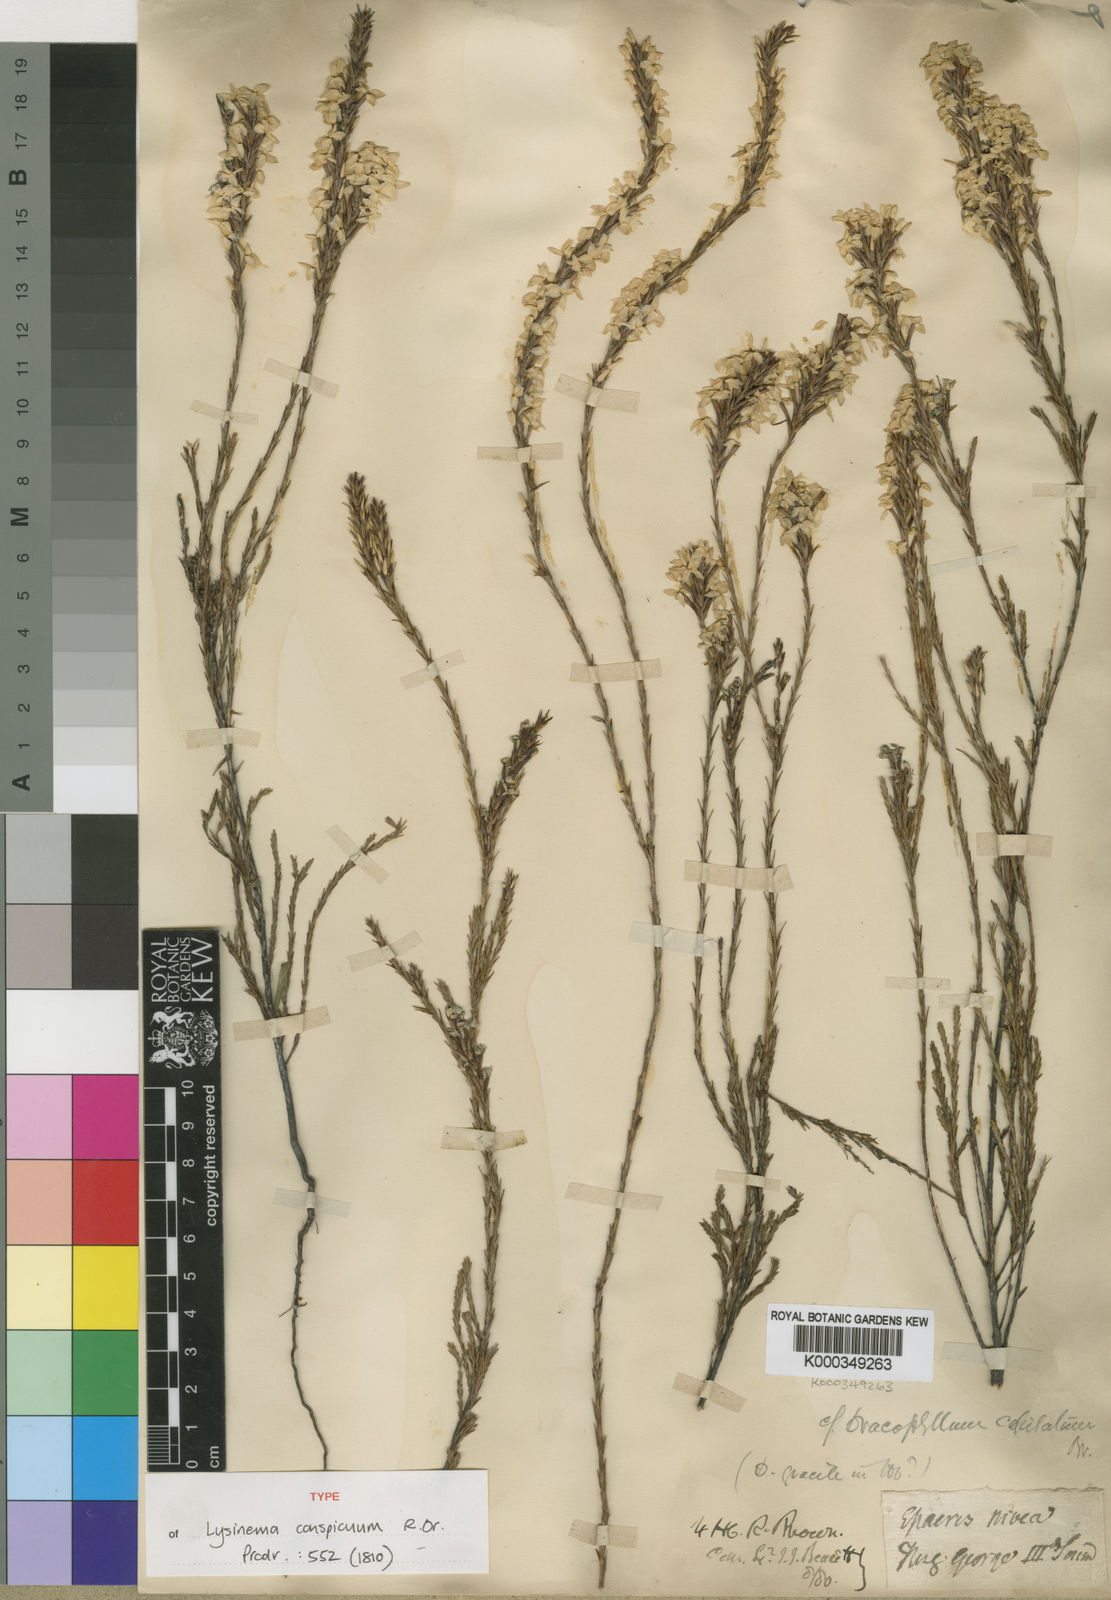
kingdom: Plantae
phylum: Tracheophyta
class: Magnoliopsida
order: Ericales
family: Ericaceae
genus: Lysinema
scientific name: Lysinema conspicuum
